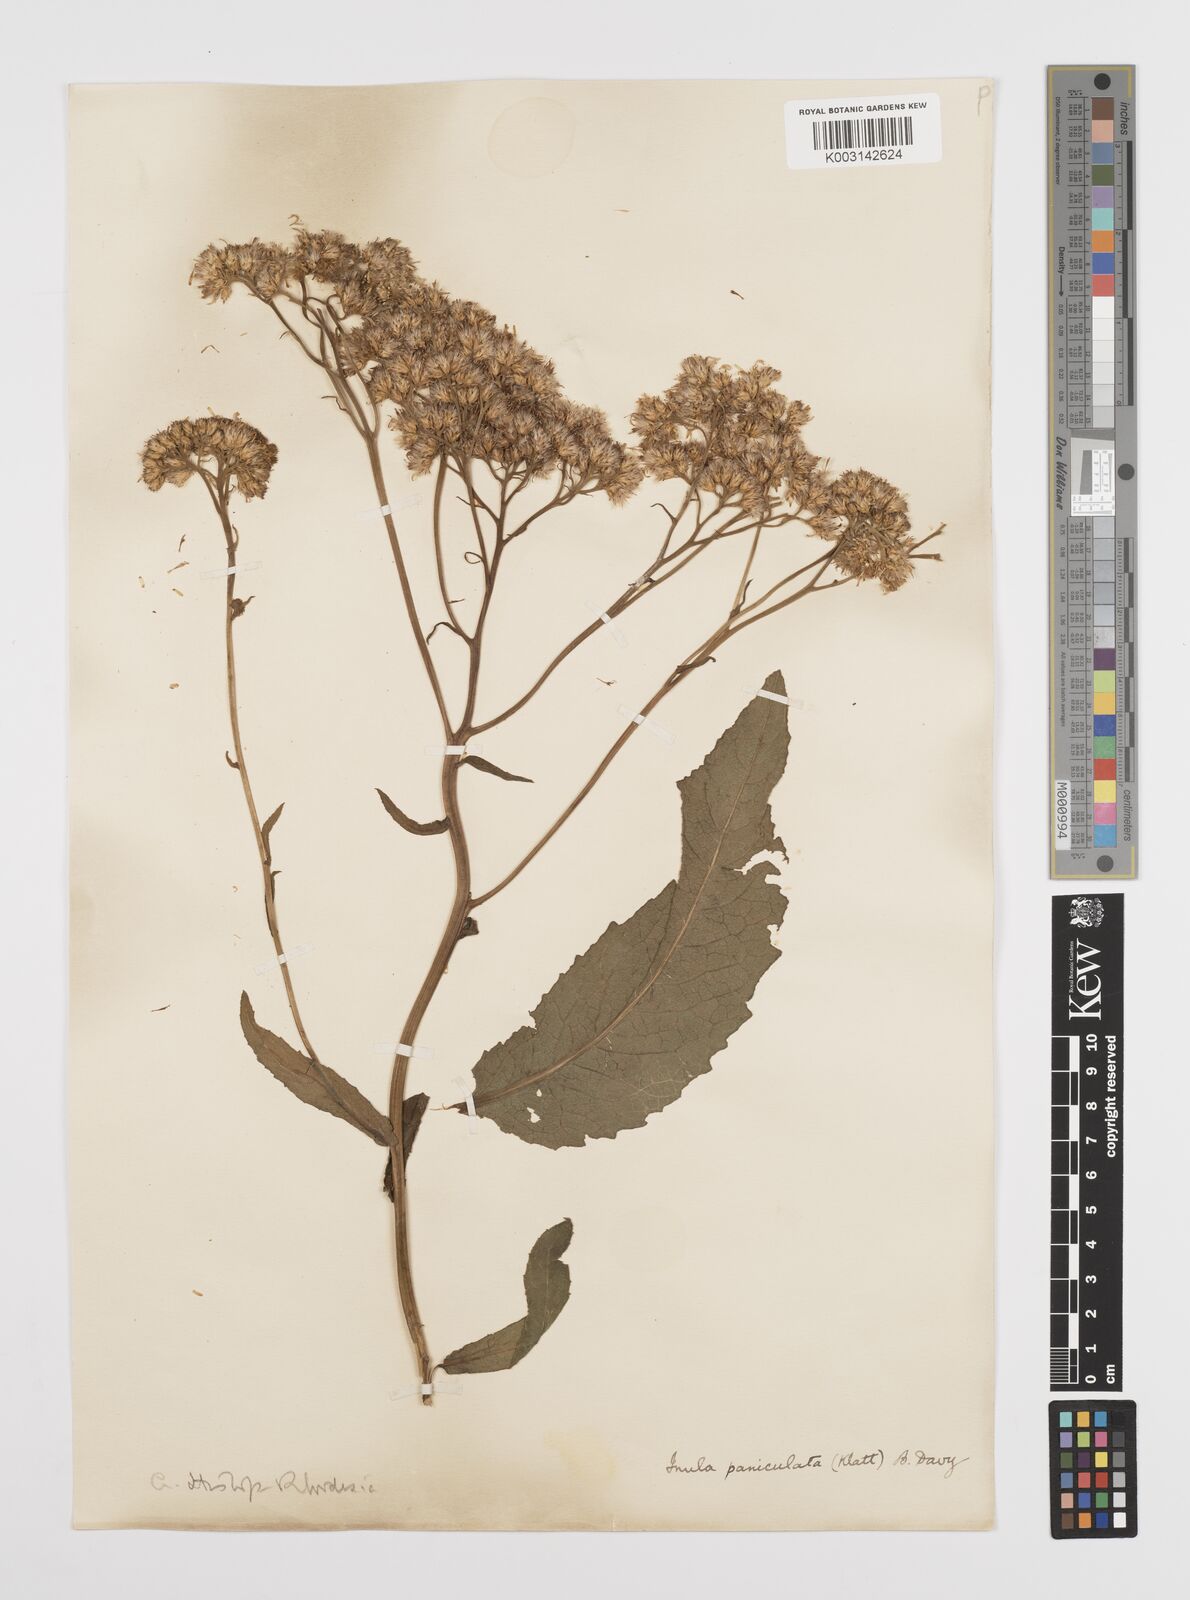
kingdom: Plantae
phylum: Tracheophyta
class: Magnoliopsida
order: Asterales
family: Asteraceae
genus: Monactinocephalus
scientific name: Monactinocephalus paniculatus
